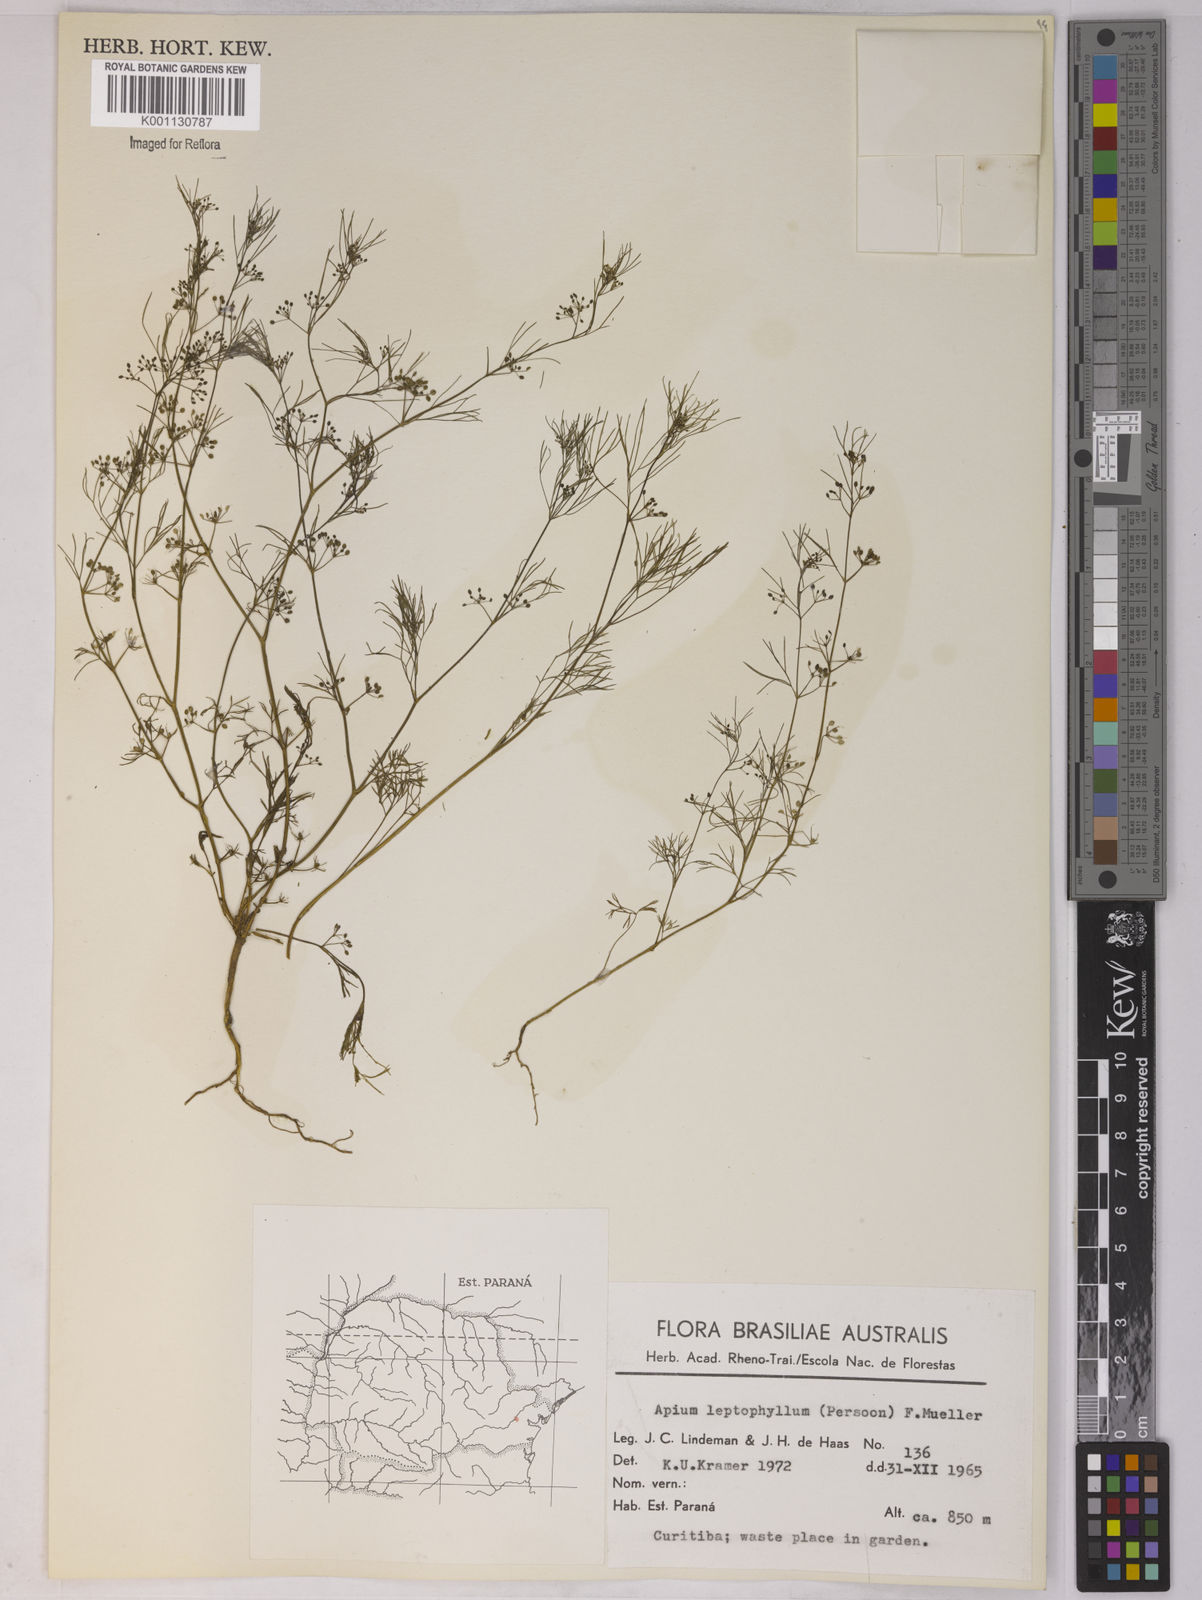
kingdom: Plantae
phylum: Tracheophyta
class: Magnoliopsida
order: Apiales
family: Apiaceae
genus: Apium
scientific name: Apium
